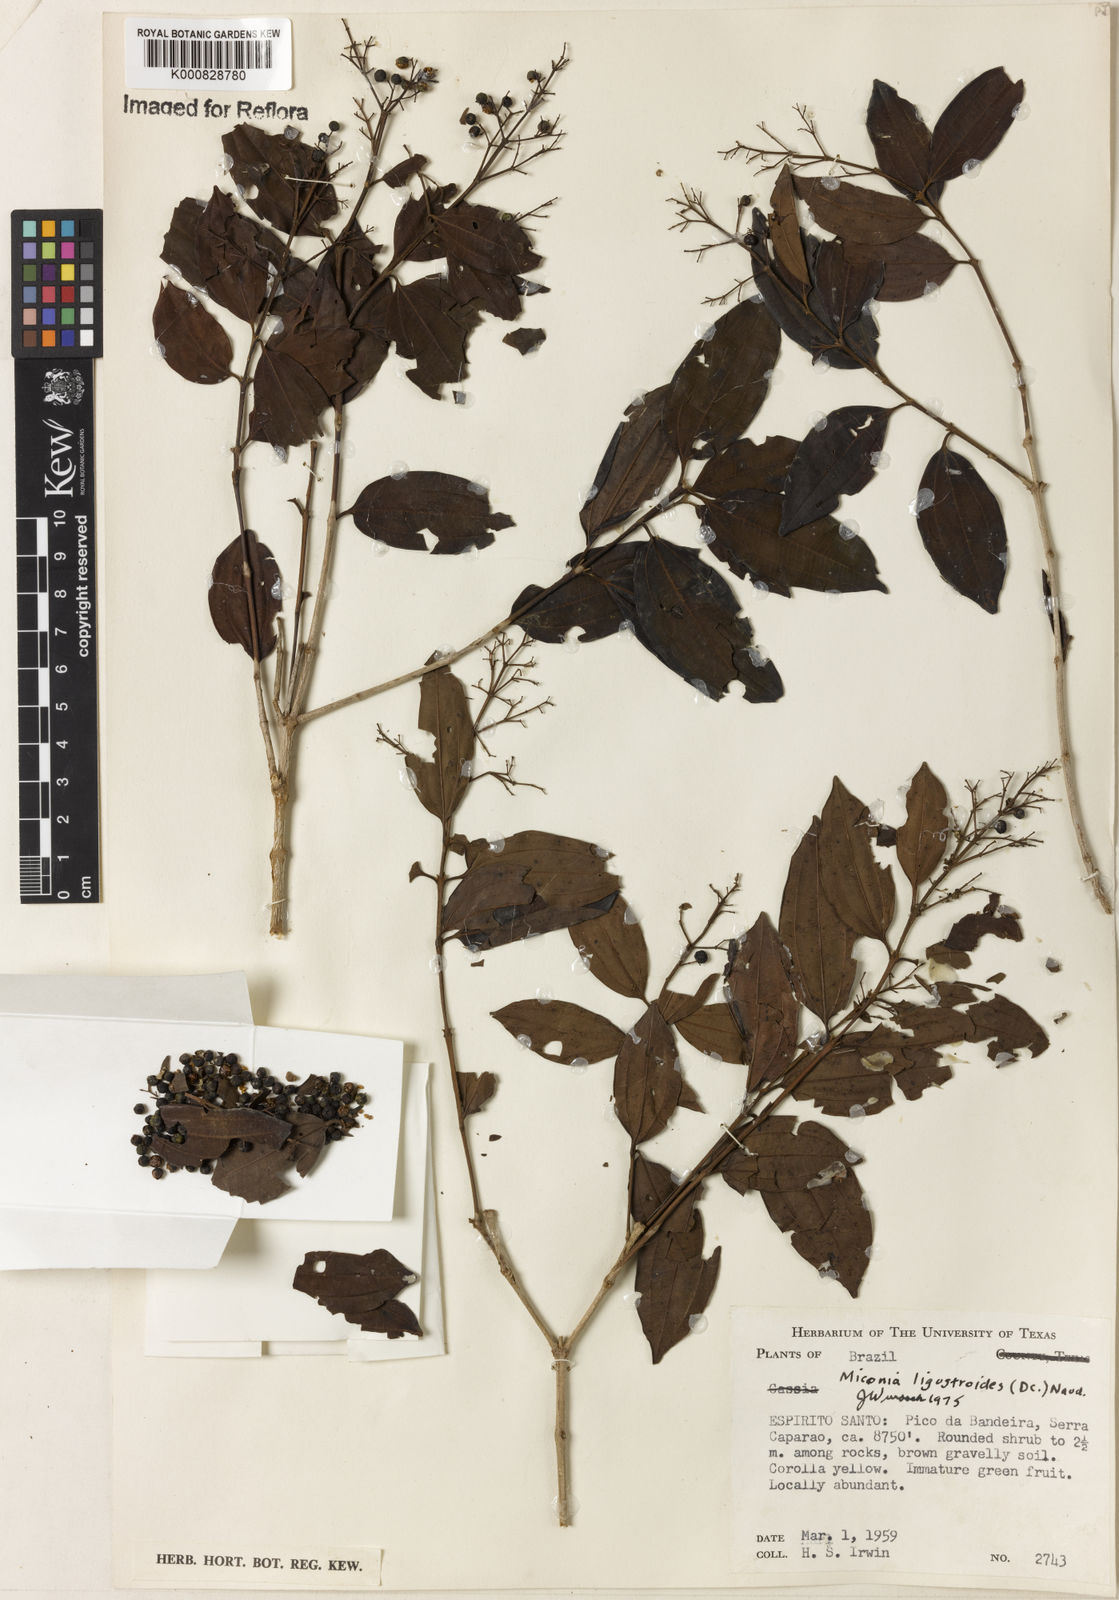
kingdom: Plantae
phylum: Tracheophyta
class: Magnoliopsida
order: Myrtales
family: Melastomataceae
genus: Miconia
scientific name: Miconia ligustroides
